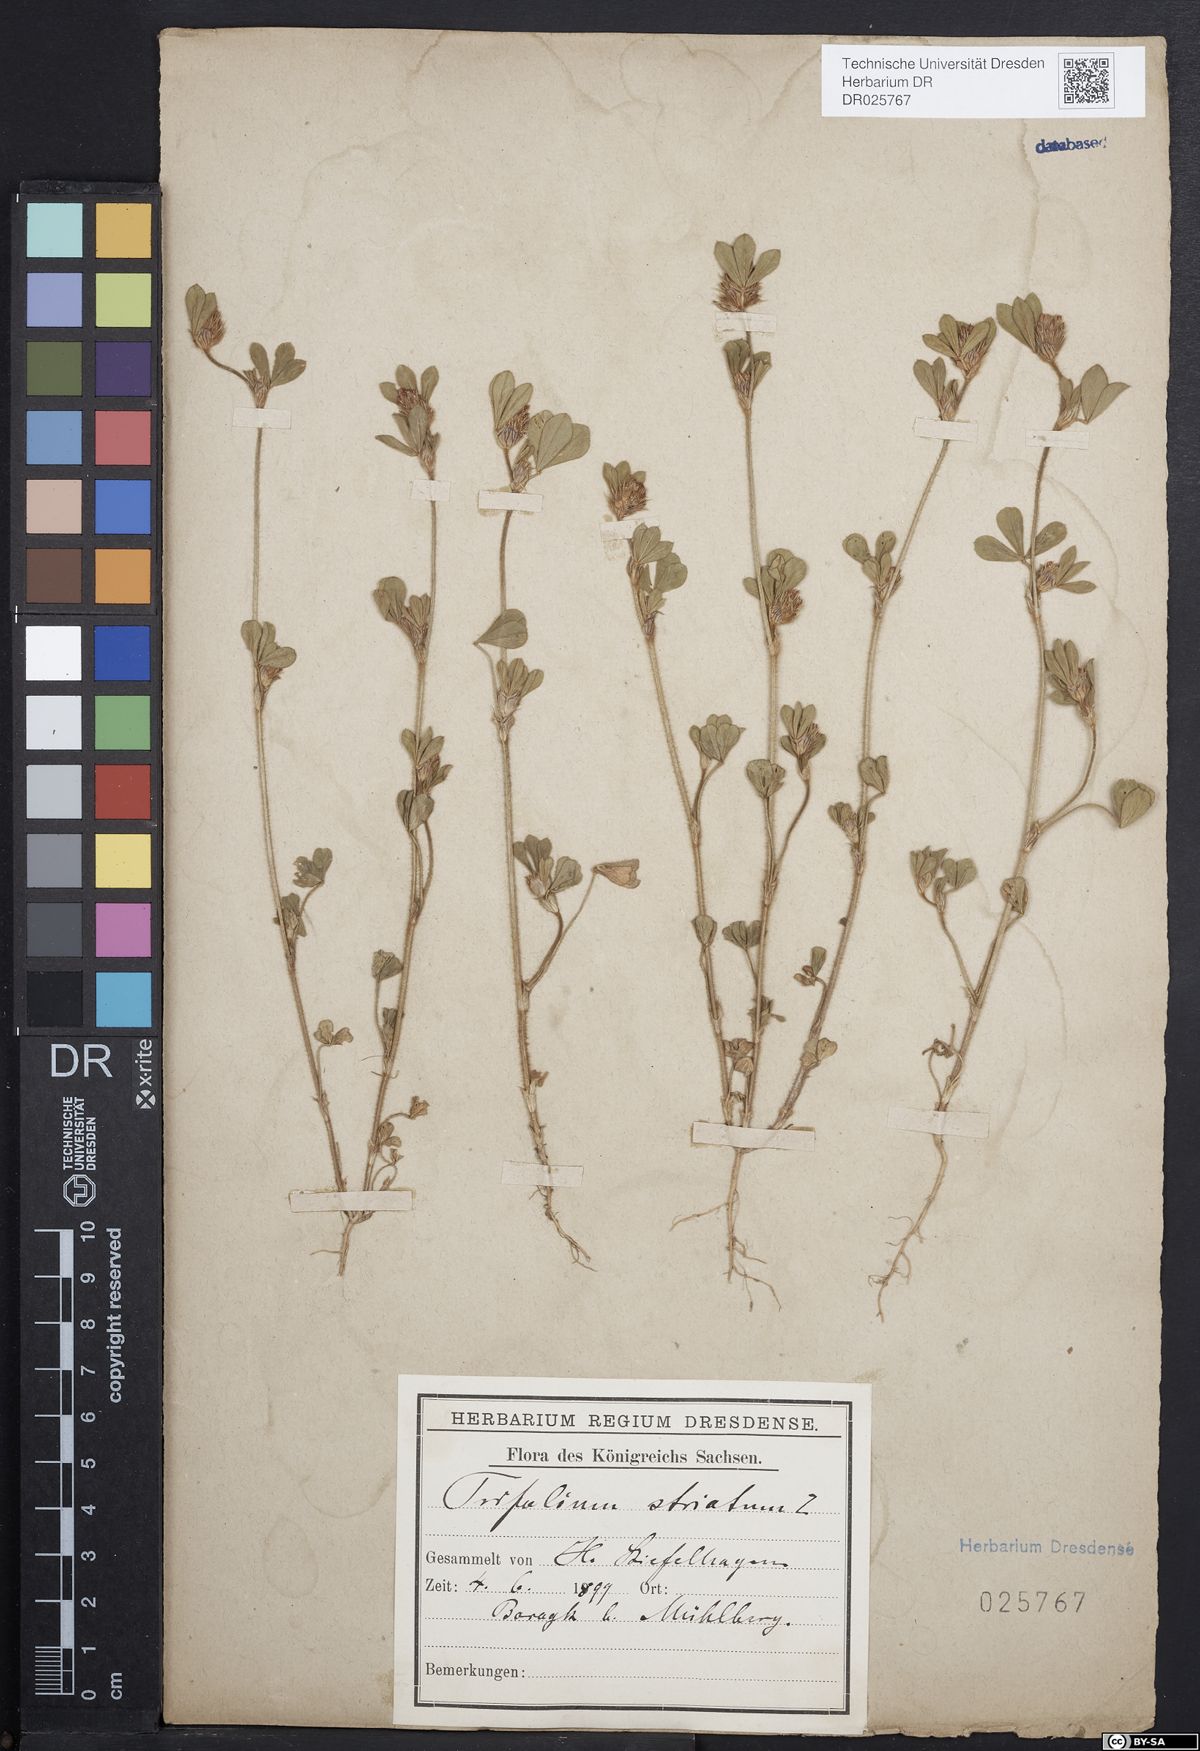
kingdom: Plantae
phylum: Tracheophyta
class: Magnoliopsida
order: Fabales
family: Fabaceae
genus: Trifolium
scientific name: Trifolium striatum
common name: Knotted clover
